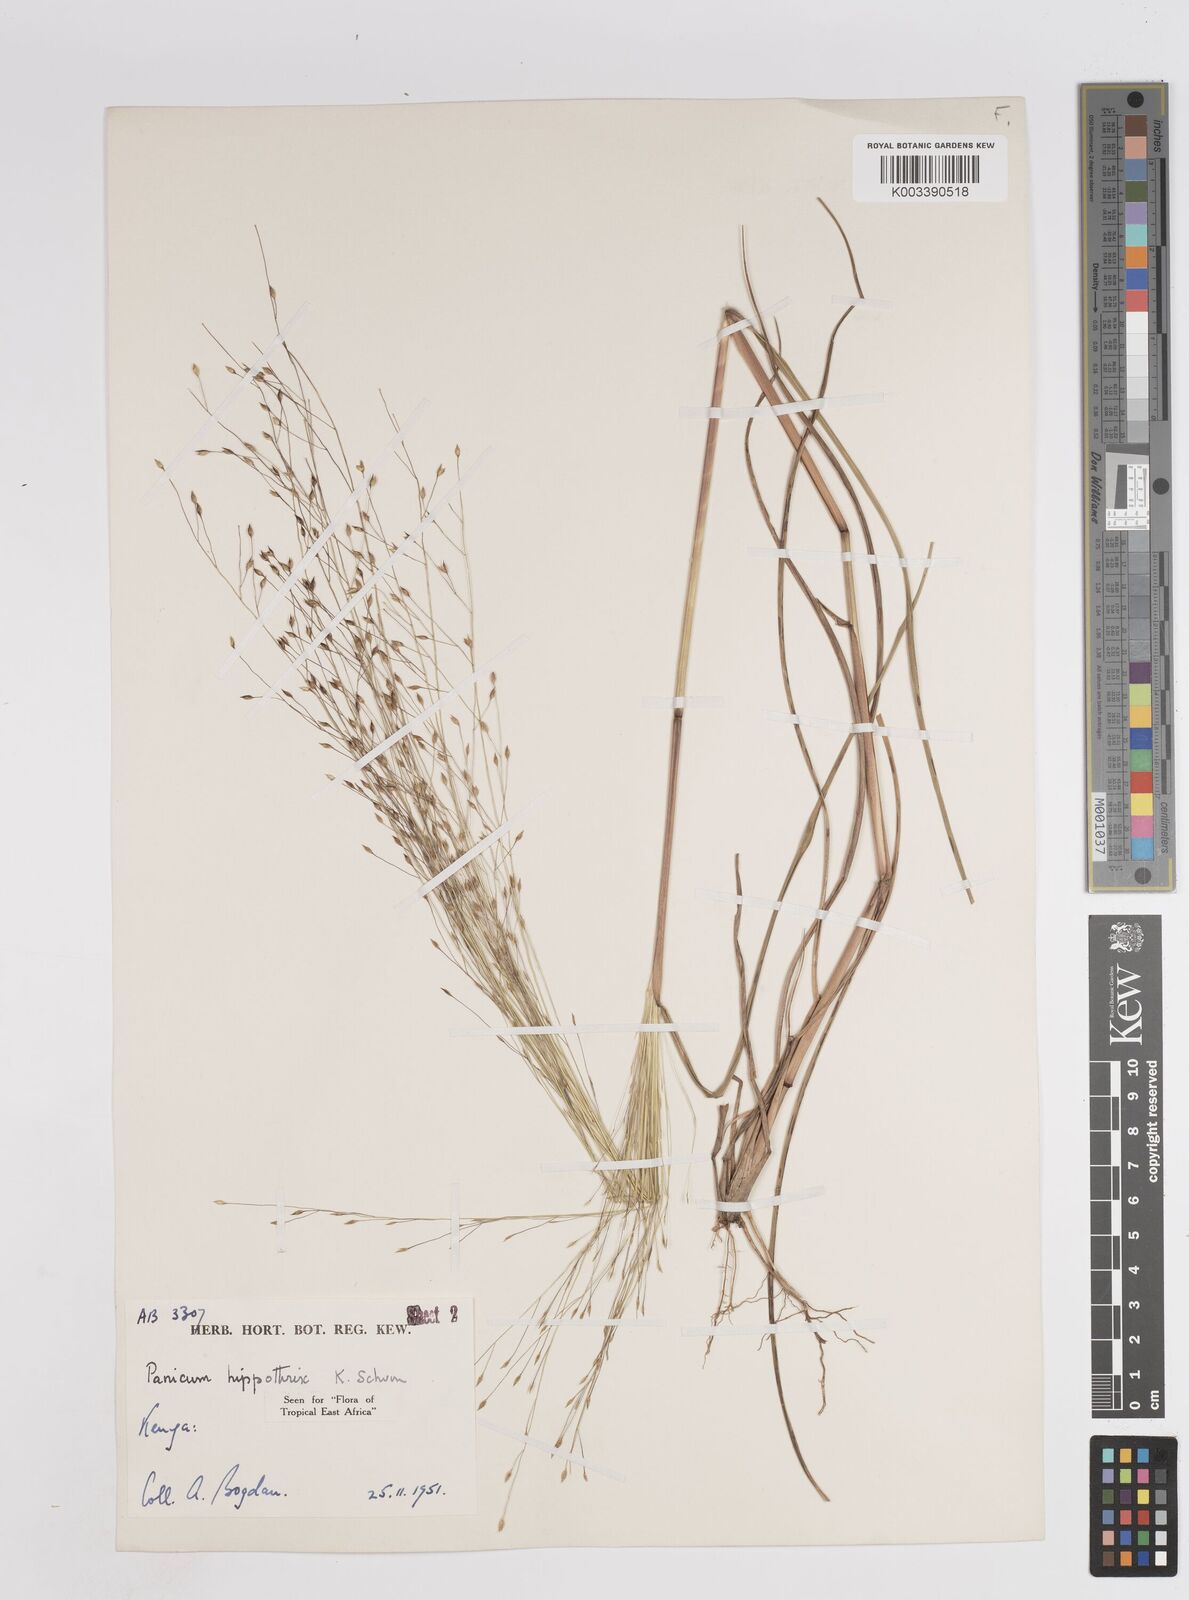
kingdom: Plantae
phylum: Tracheophyta
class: Liliopsida
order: Poales
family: Poaceae
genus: Panicum
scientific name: Panicum hippothrix
